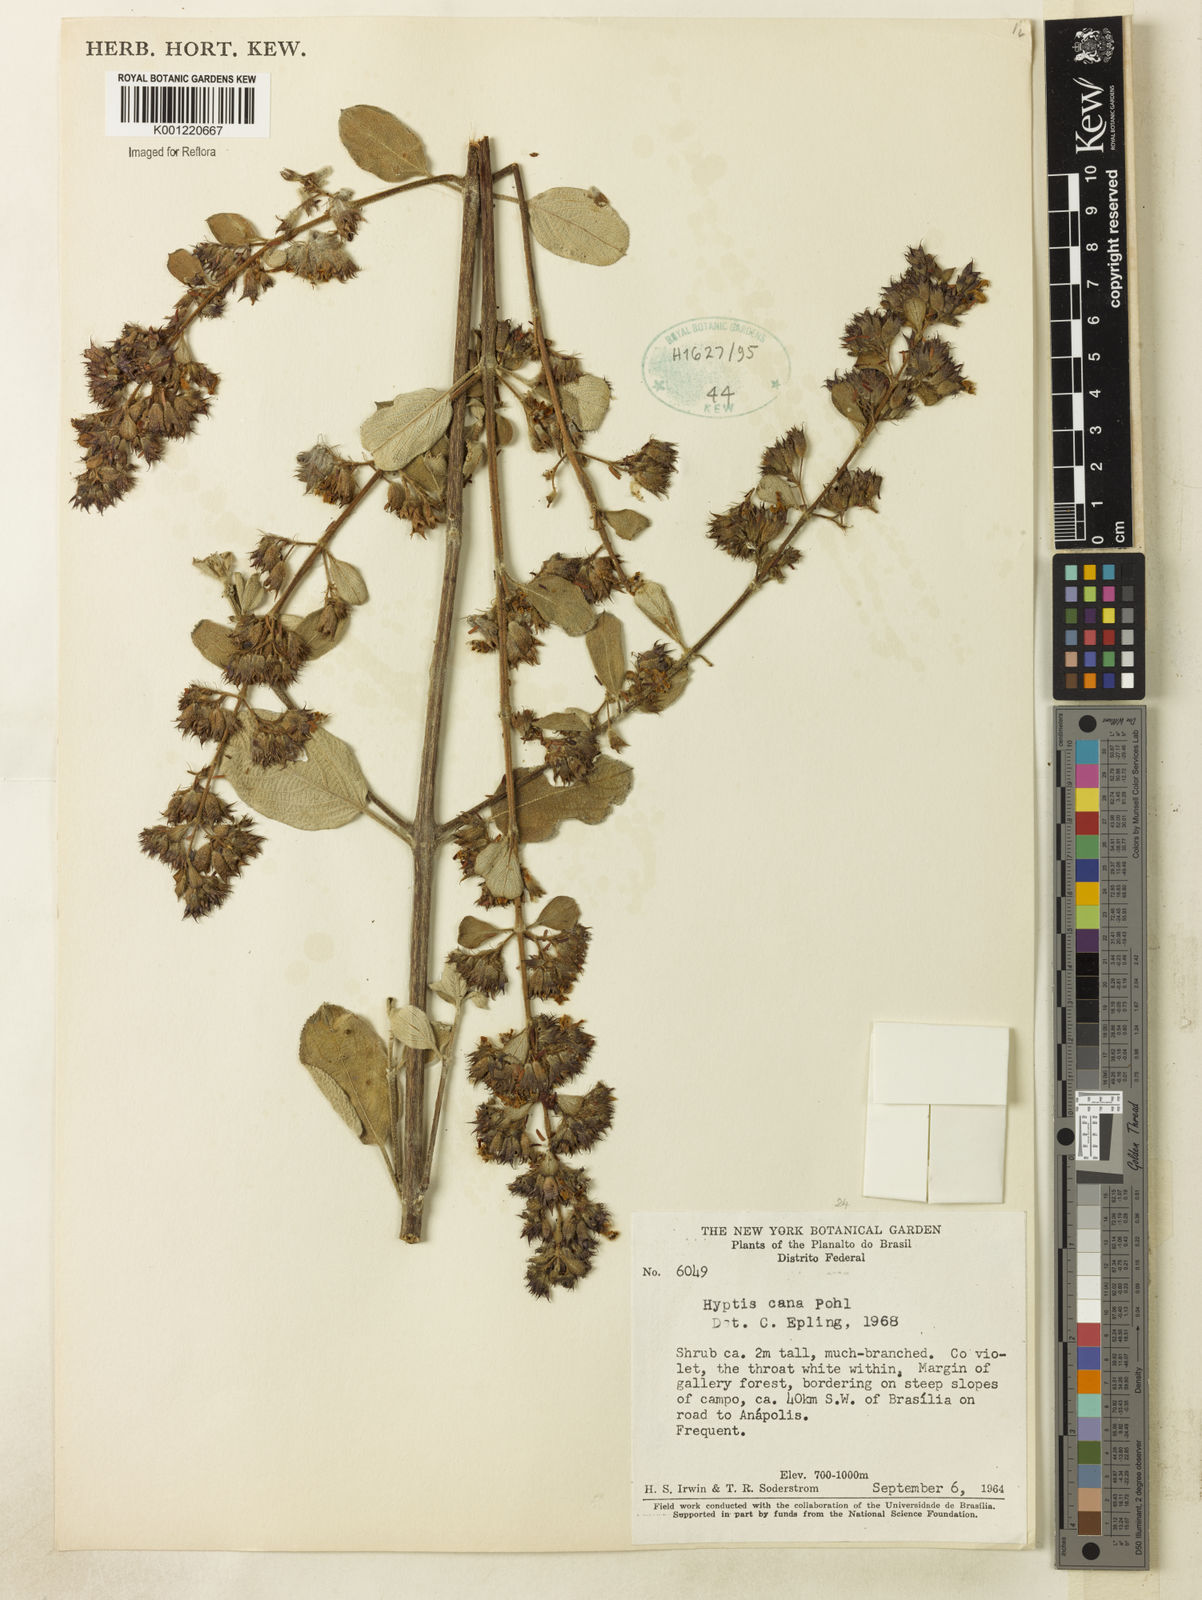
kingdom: Plantae
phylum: Tracheophyta
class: Magnoliopsida
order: Lamiales
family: Lamiaceae
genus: Hyptidendron
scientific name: Hyptidendron canum
